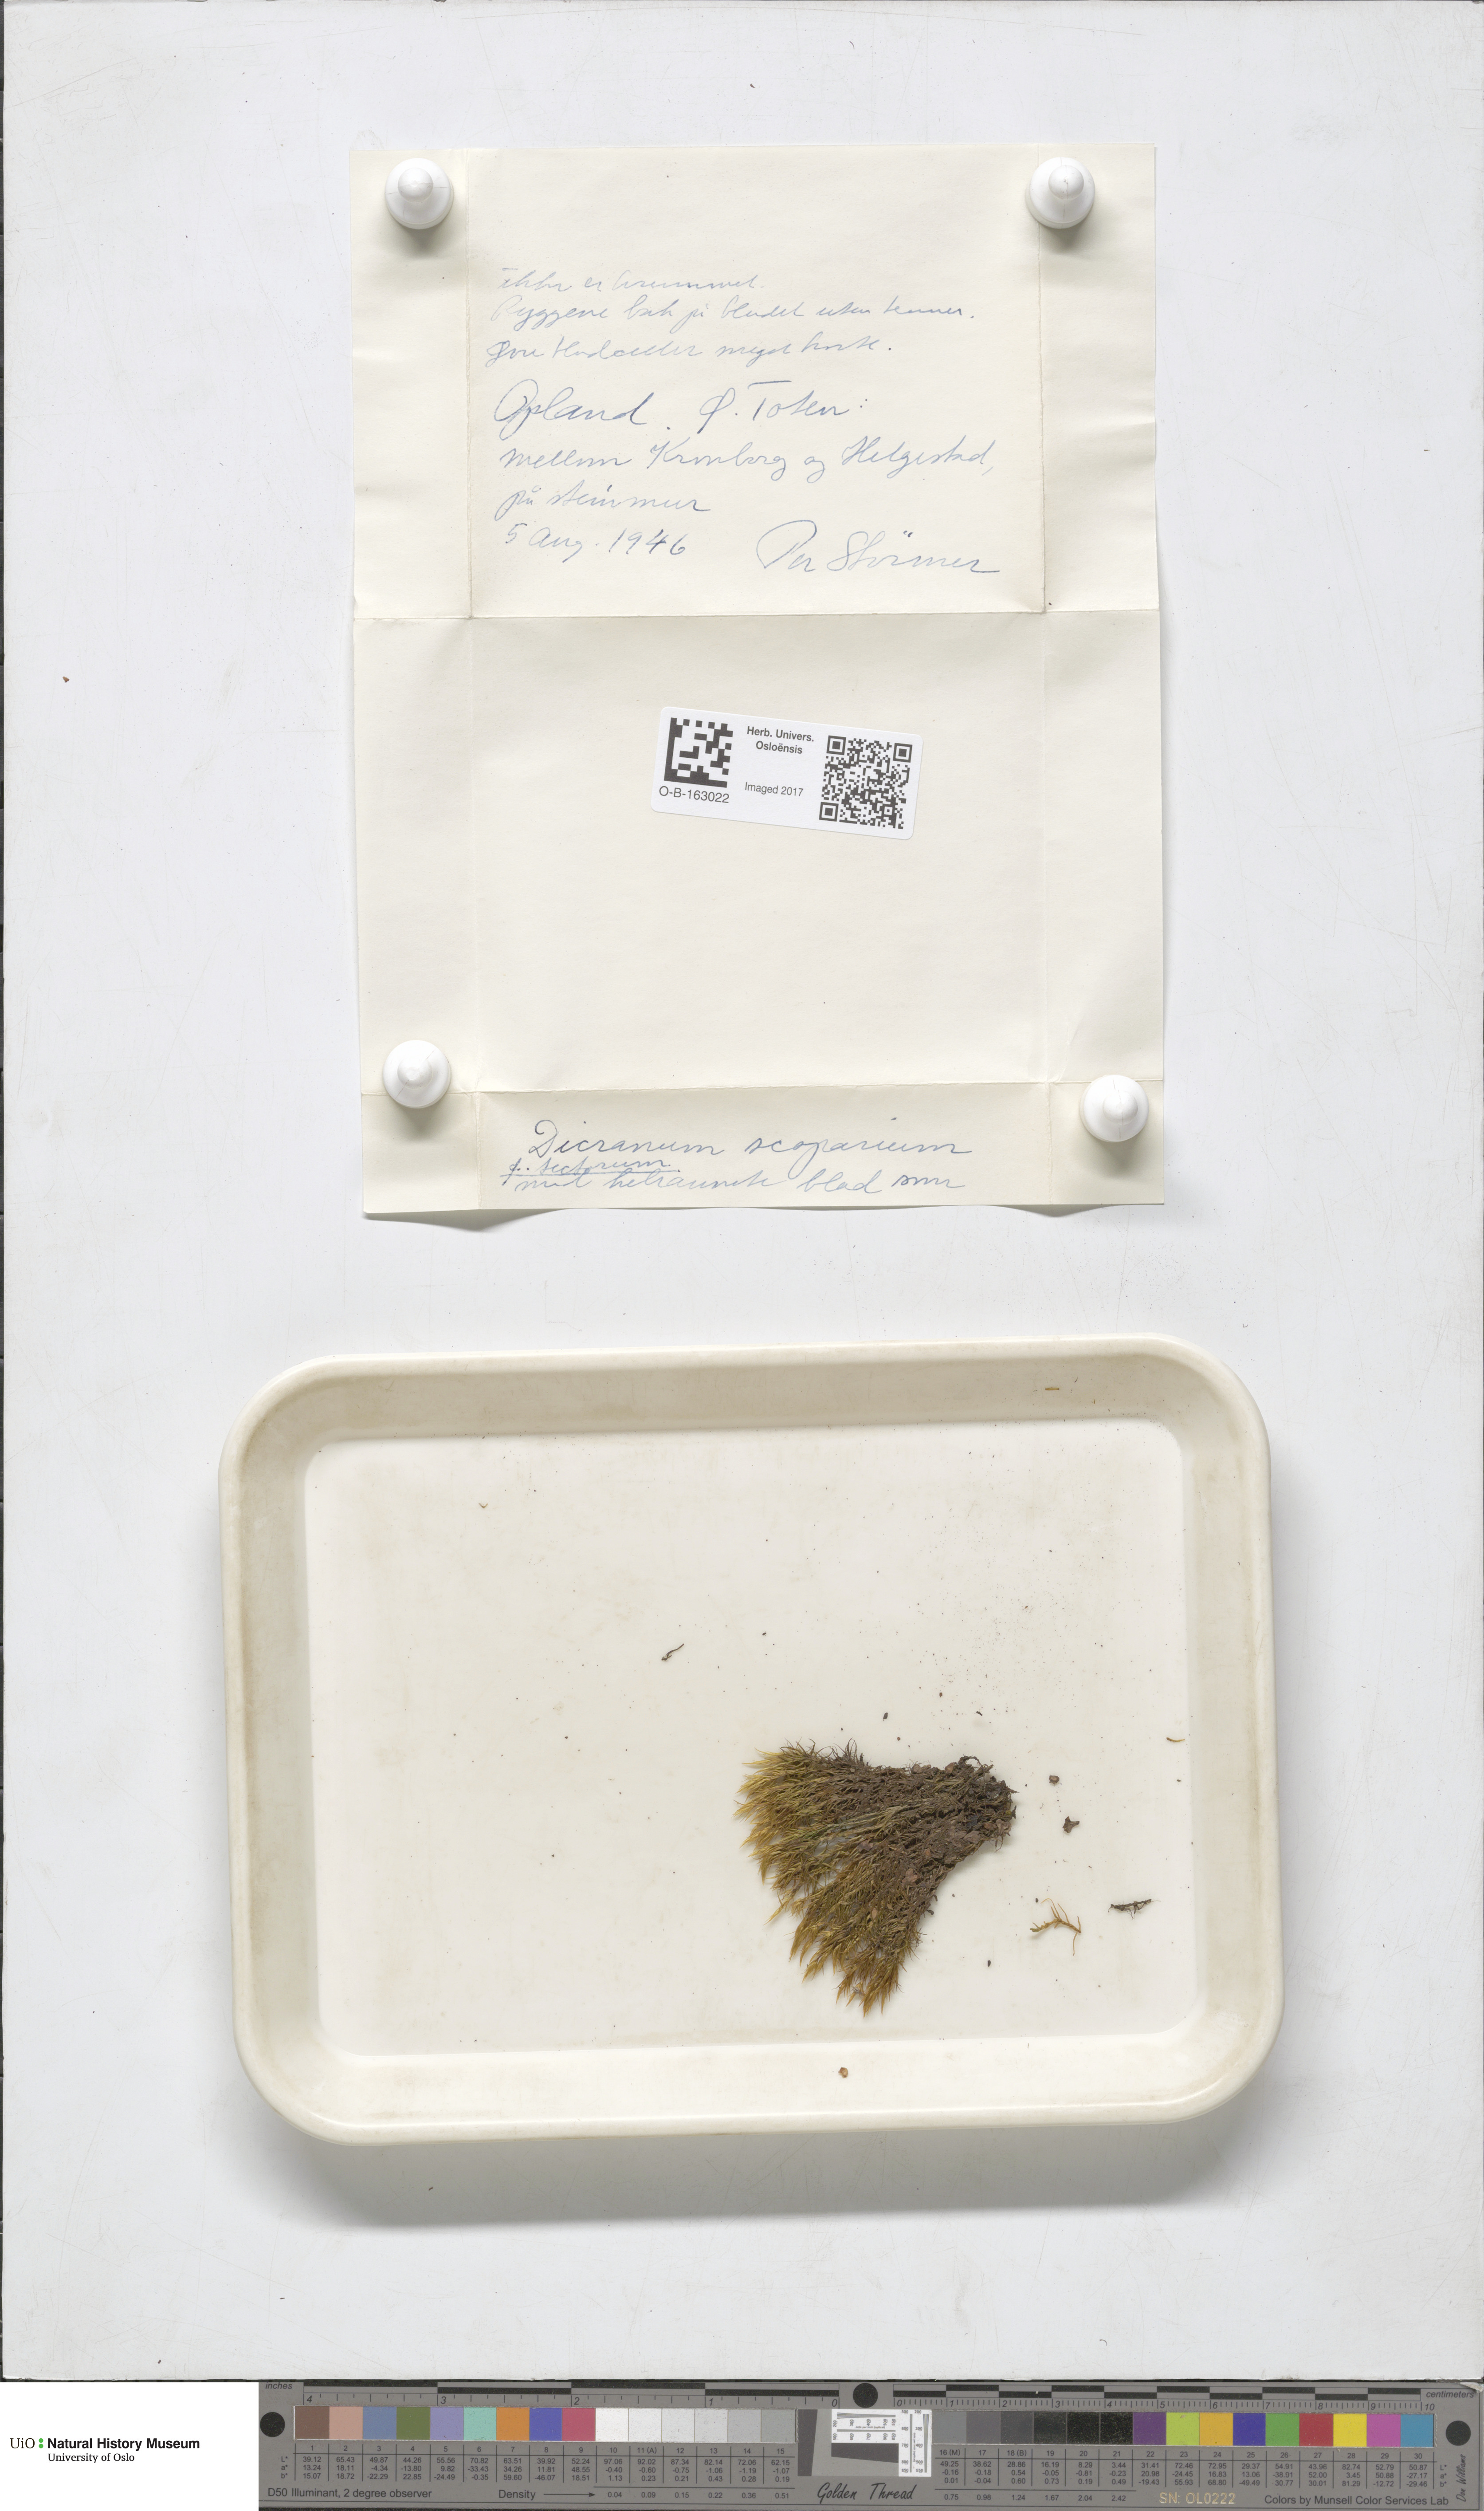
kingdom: Plantae
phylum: Bryophyta
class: Bryopsida
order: Dicranales
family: Dicranaceae
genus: Dicranum
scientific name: Dicranum scoparium
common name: Broom fork-moss
